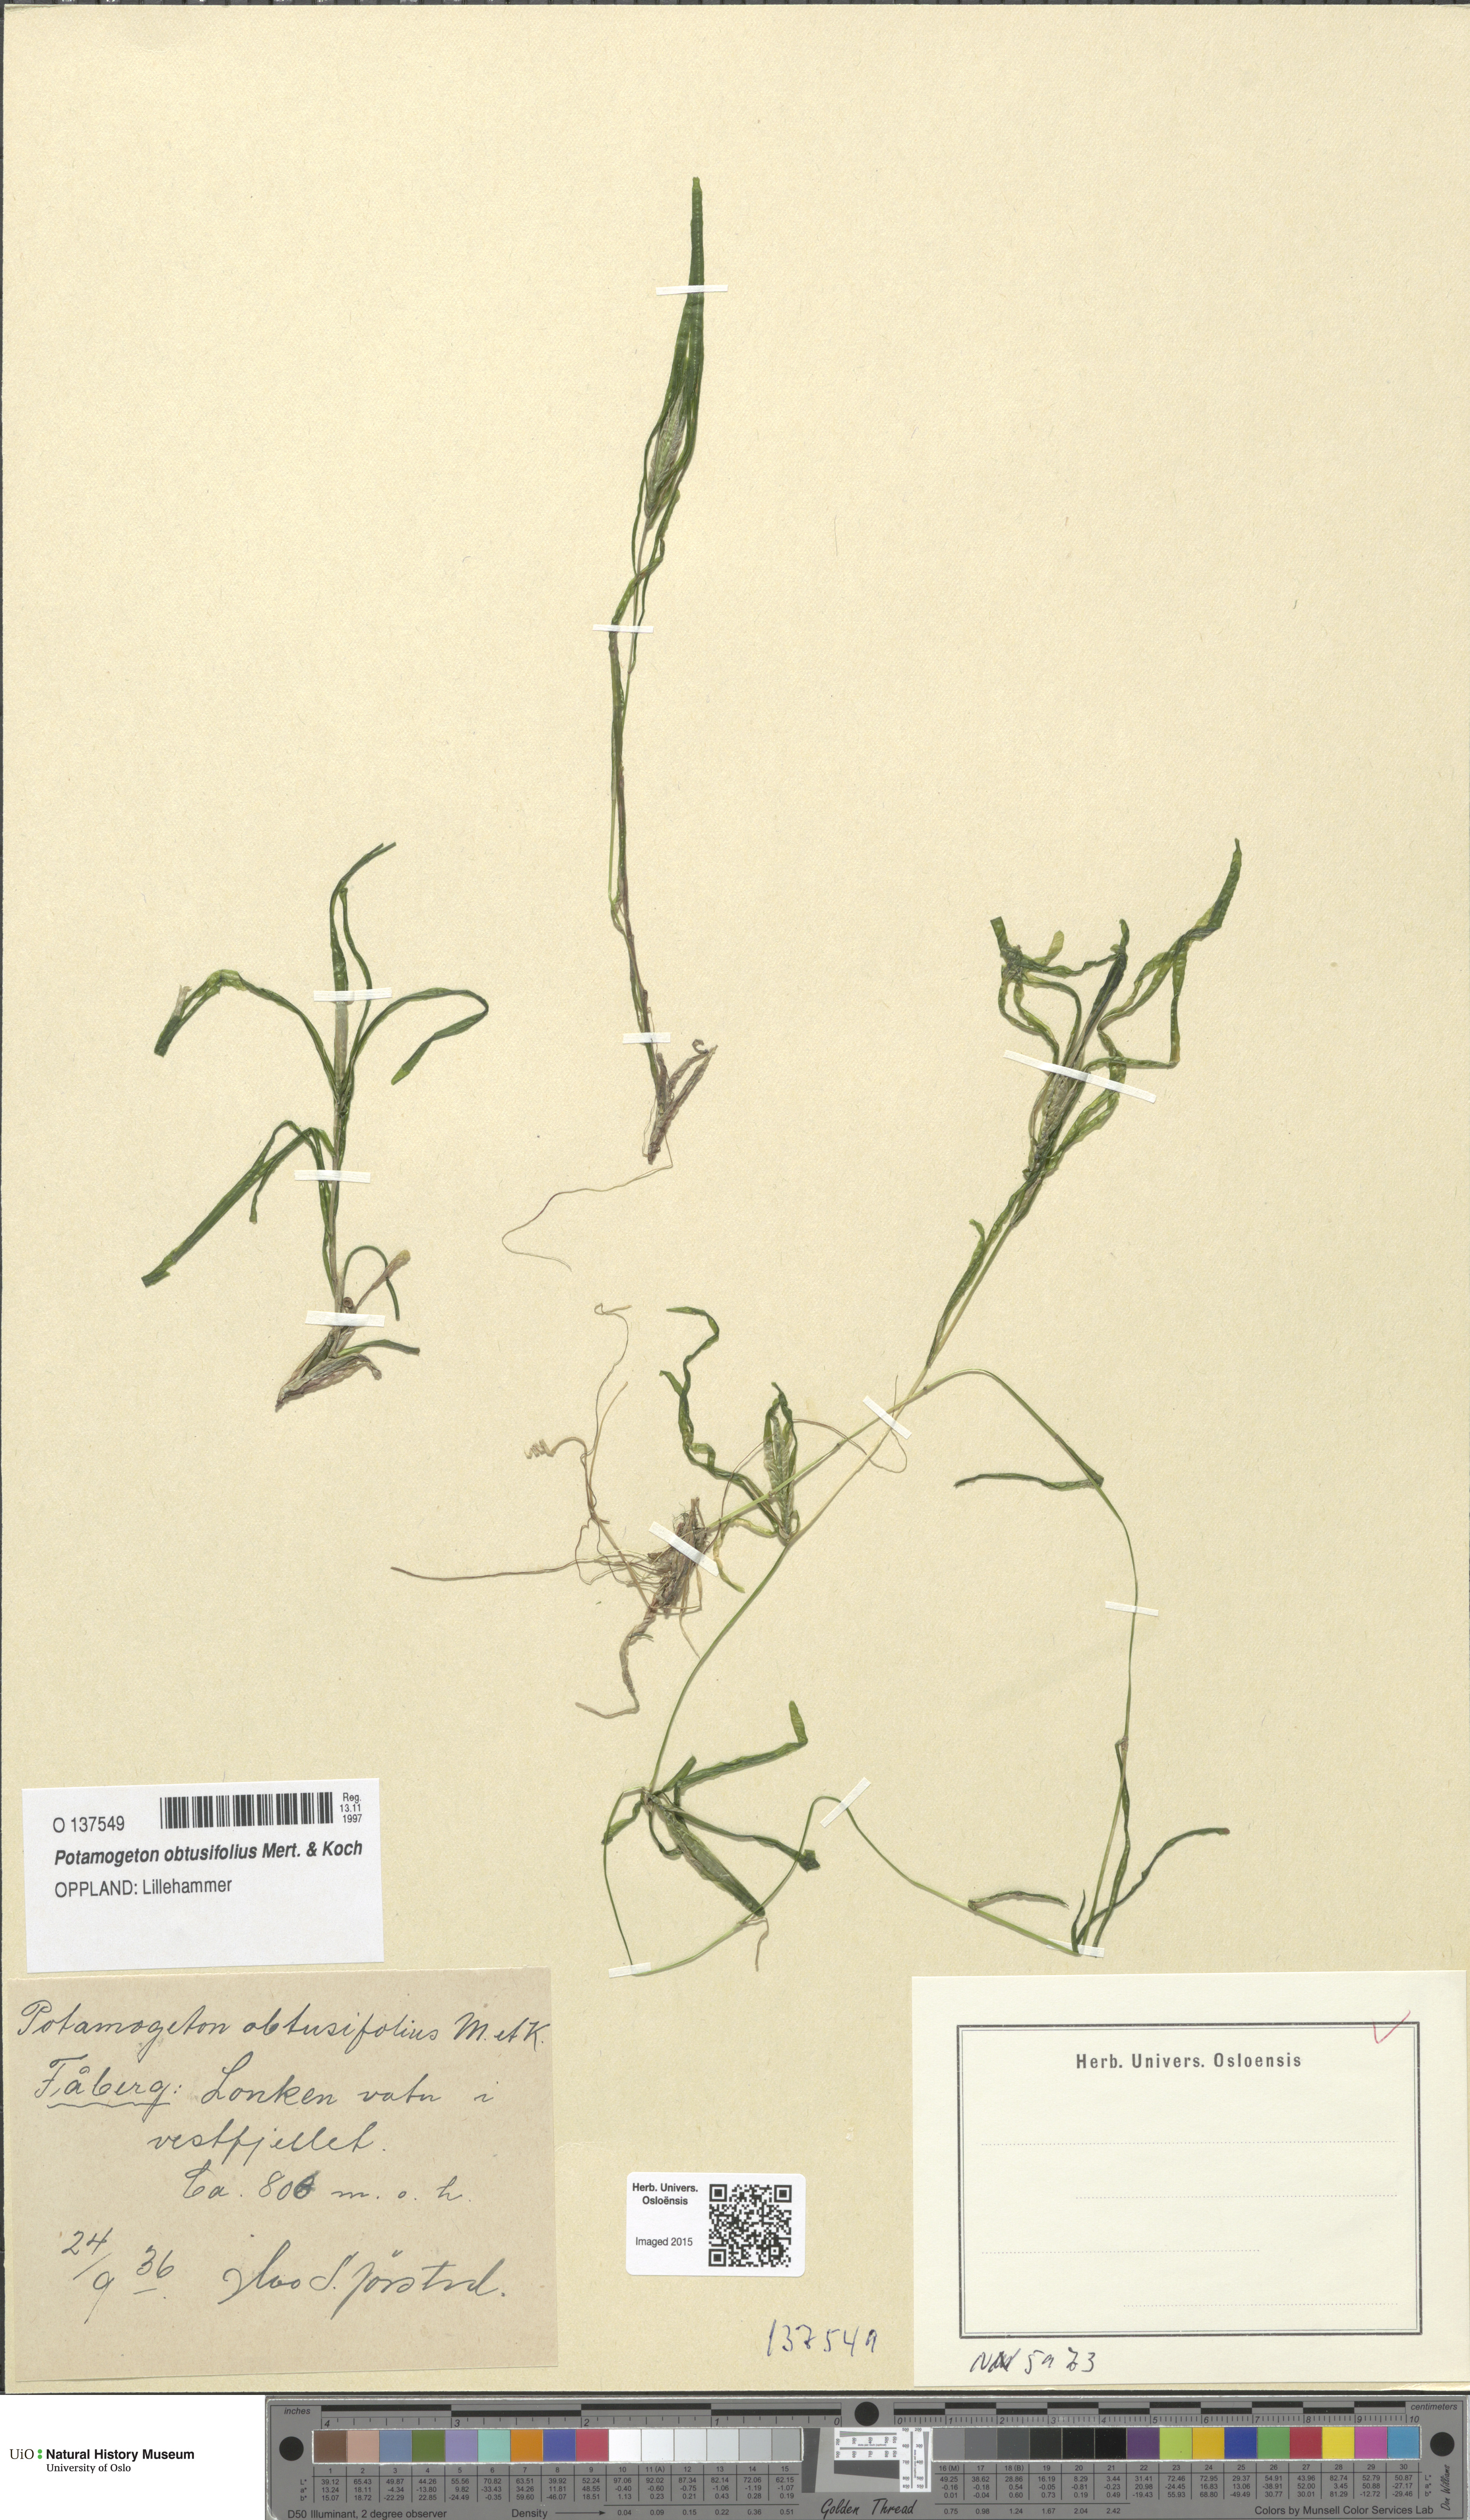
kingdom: Plantae
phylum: Tracheophyta
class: Liliopsida
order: Alismatales
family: Potamogetonaceae
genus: Potamogeton
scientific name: Potamogeton obtusifolius
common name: Blunt-leaved pondweed
